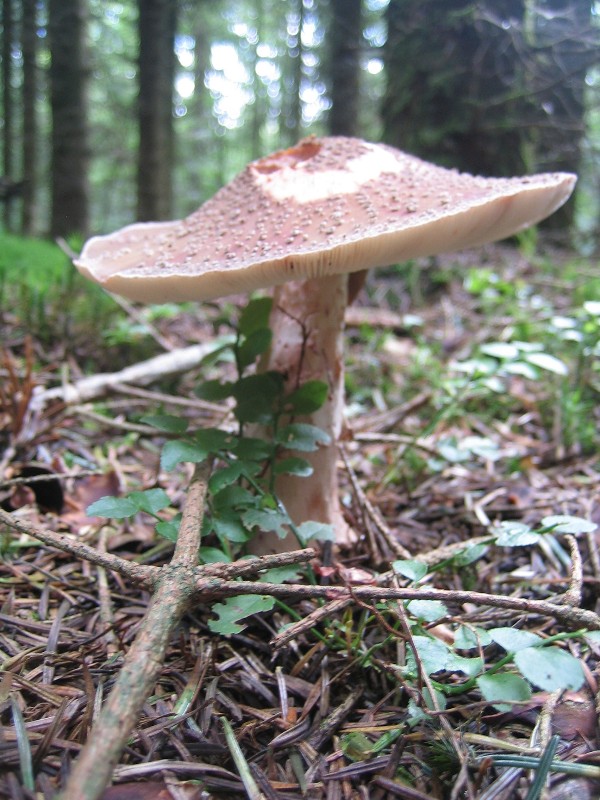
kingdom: Fungi
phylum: Basidiomycota
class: Agaricomycetes
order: Agaricales
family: Amanitaceae
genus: Amanita
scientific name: Amanita rubescens
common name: rødmende fluesvamp
